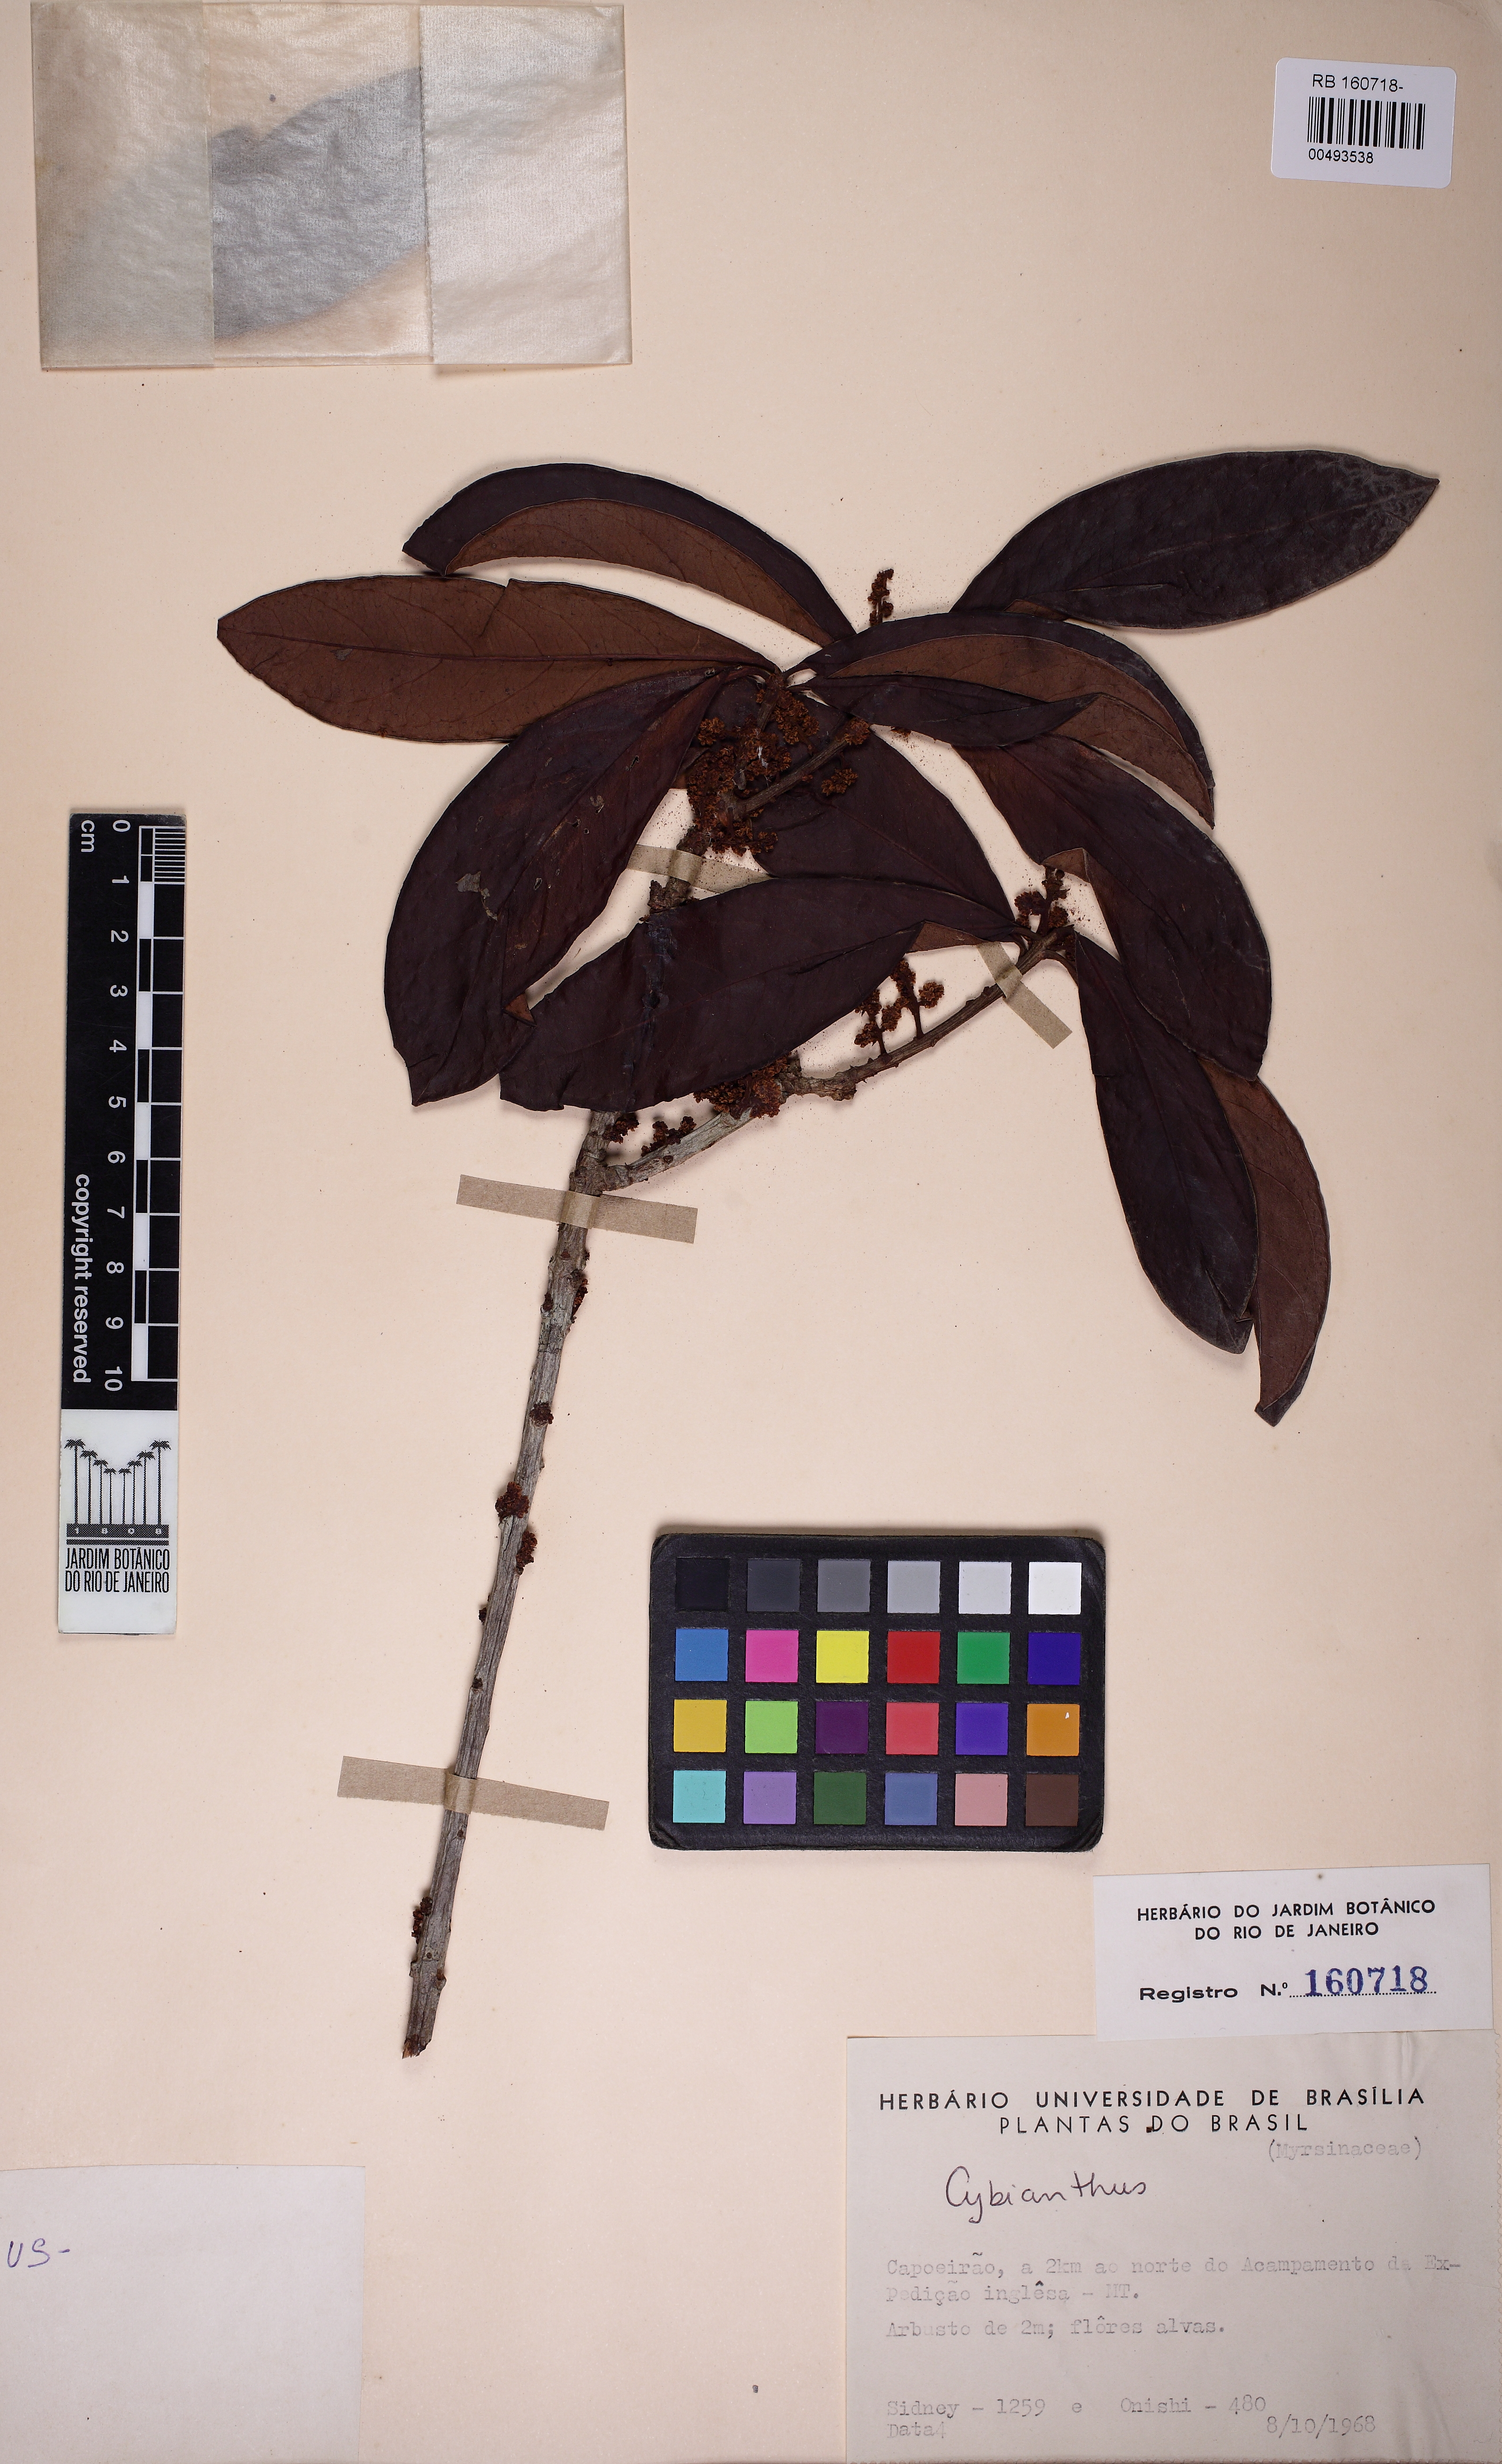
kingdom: Plantae
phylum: Tracheophyta
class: Magnoliopsida
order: Ericales
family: Primulaceae
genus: Cybianthus
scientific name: Cybianthus
